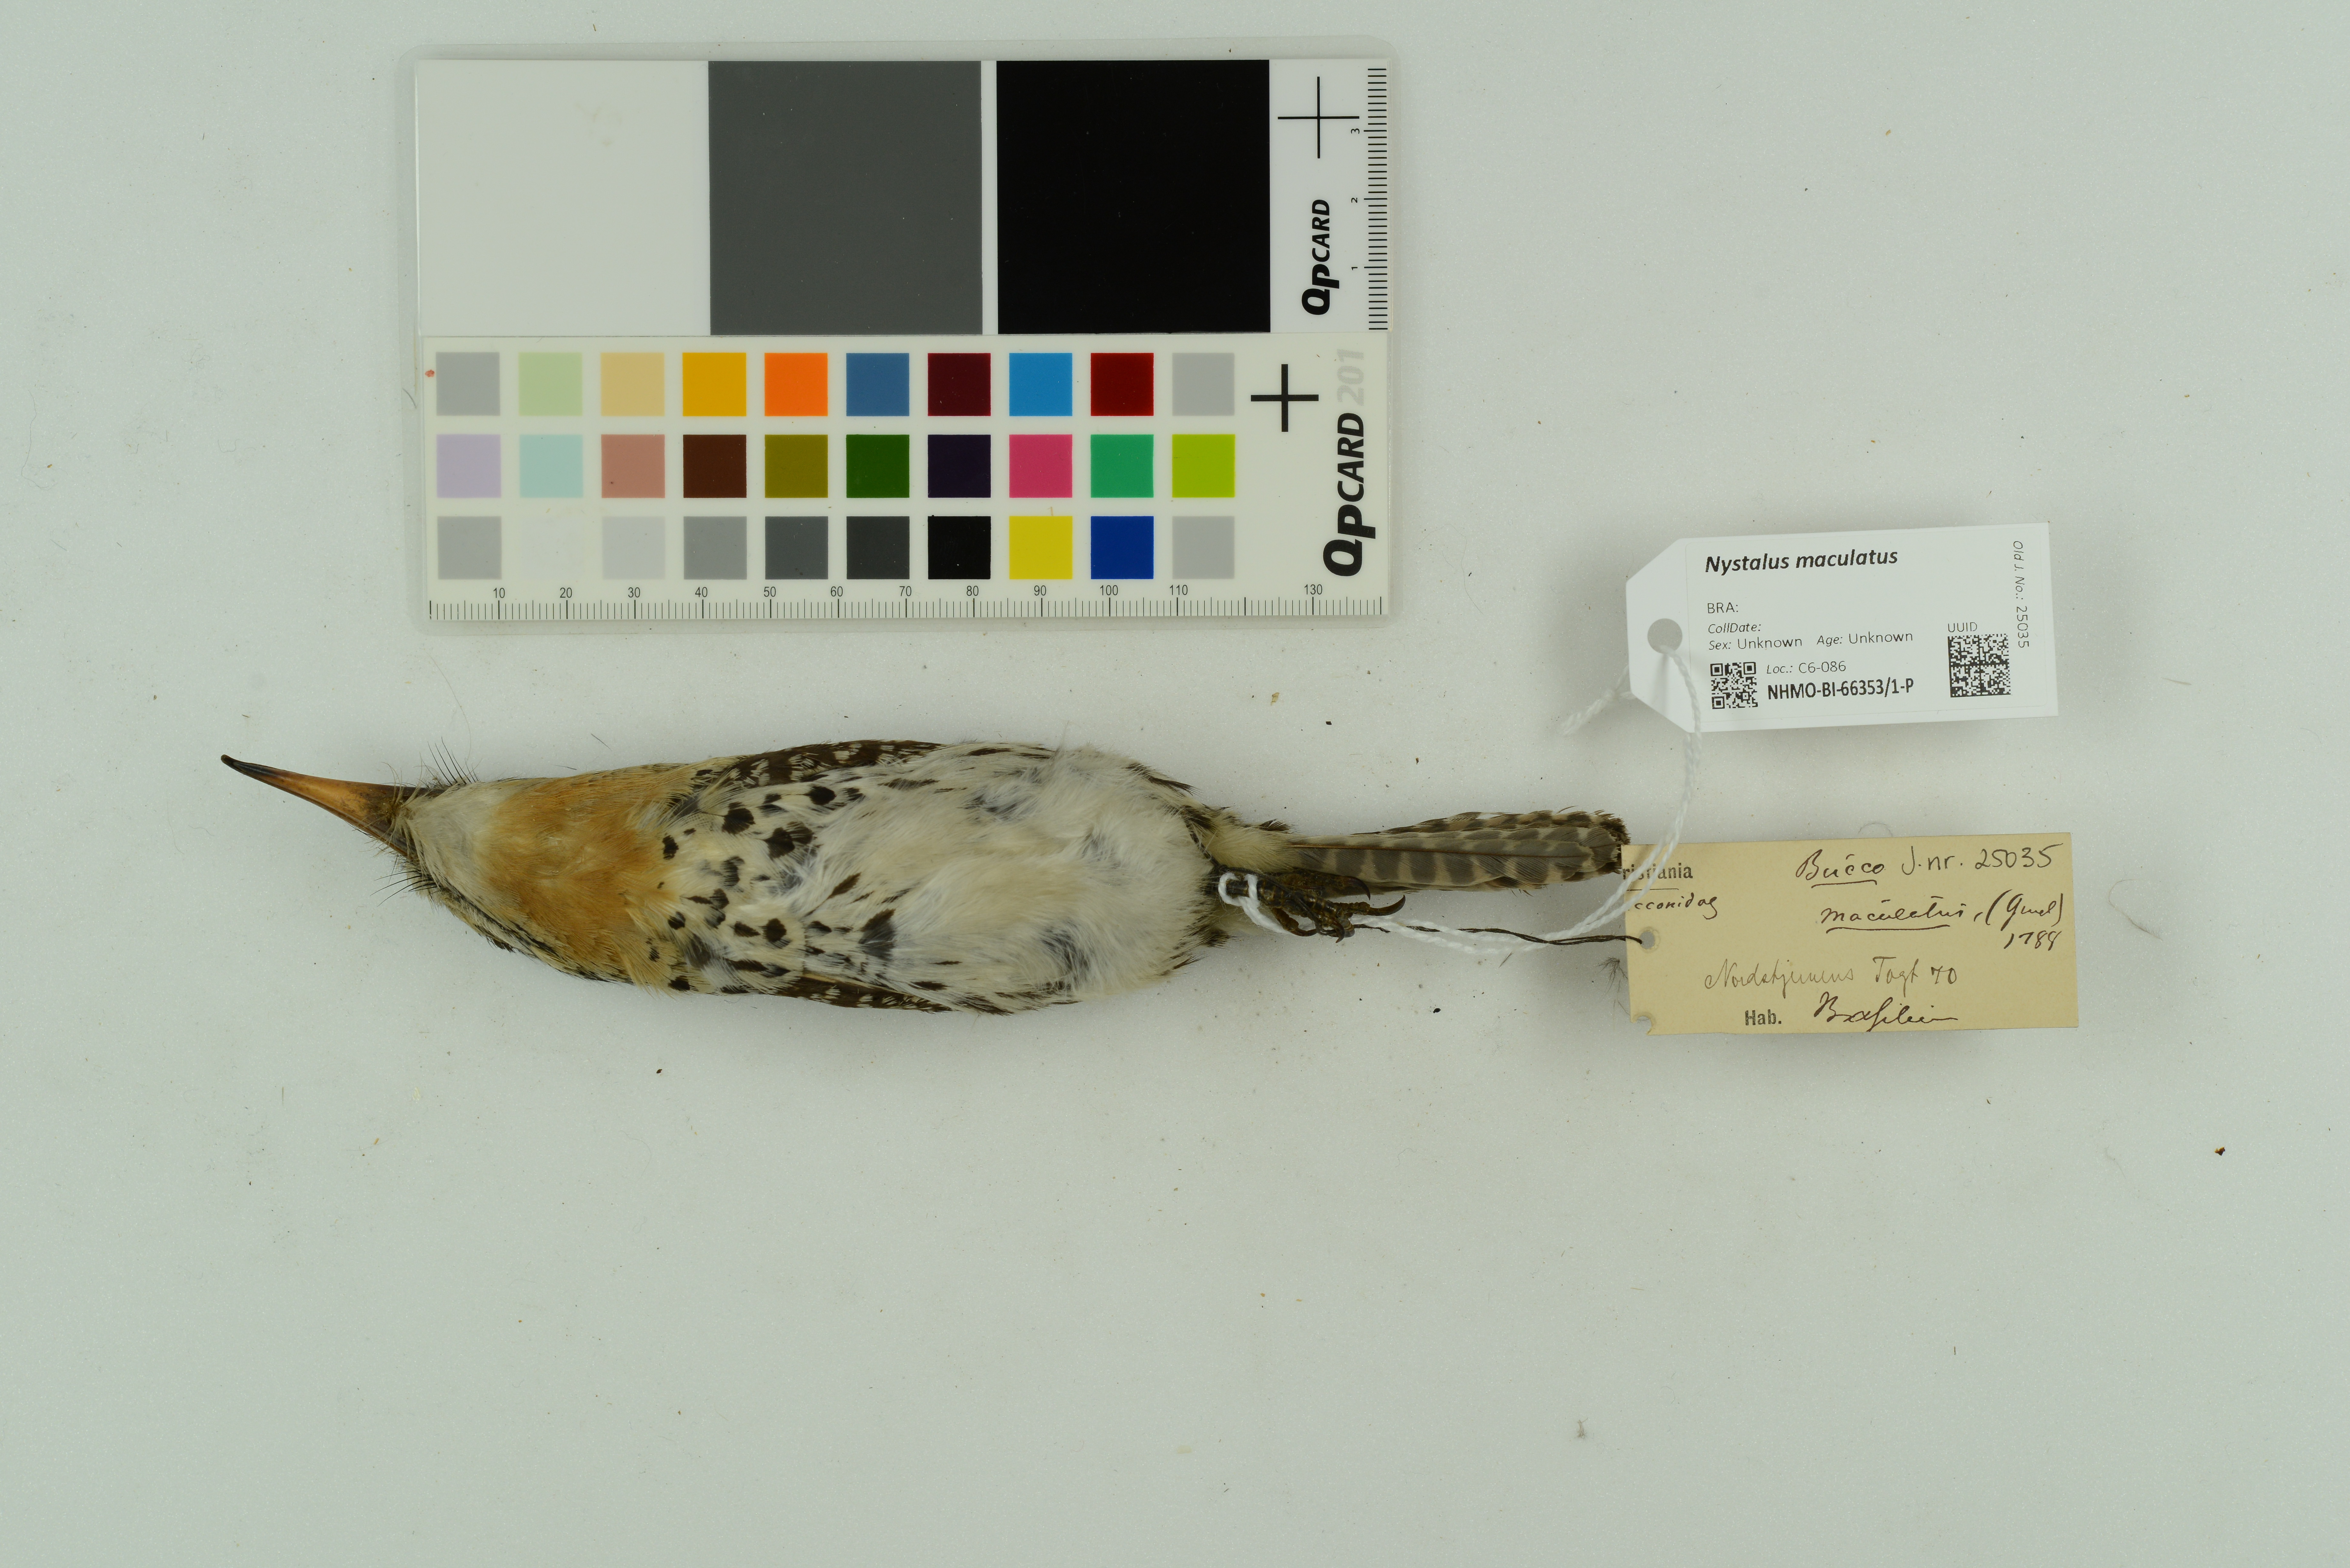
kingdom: Animalia
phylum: Chordata
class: Aves
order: Piciformes
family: Bucconidae
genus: Nystalus
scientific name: Nystalus maculatus
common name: Caatinga puffbird
